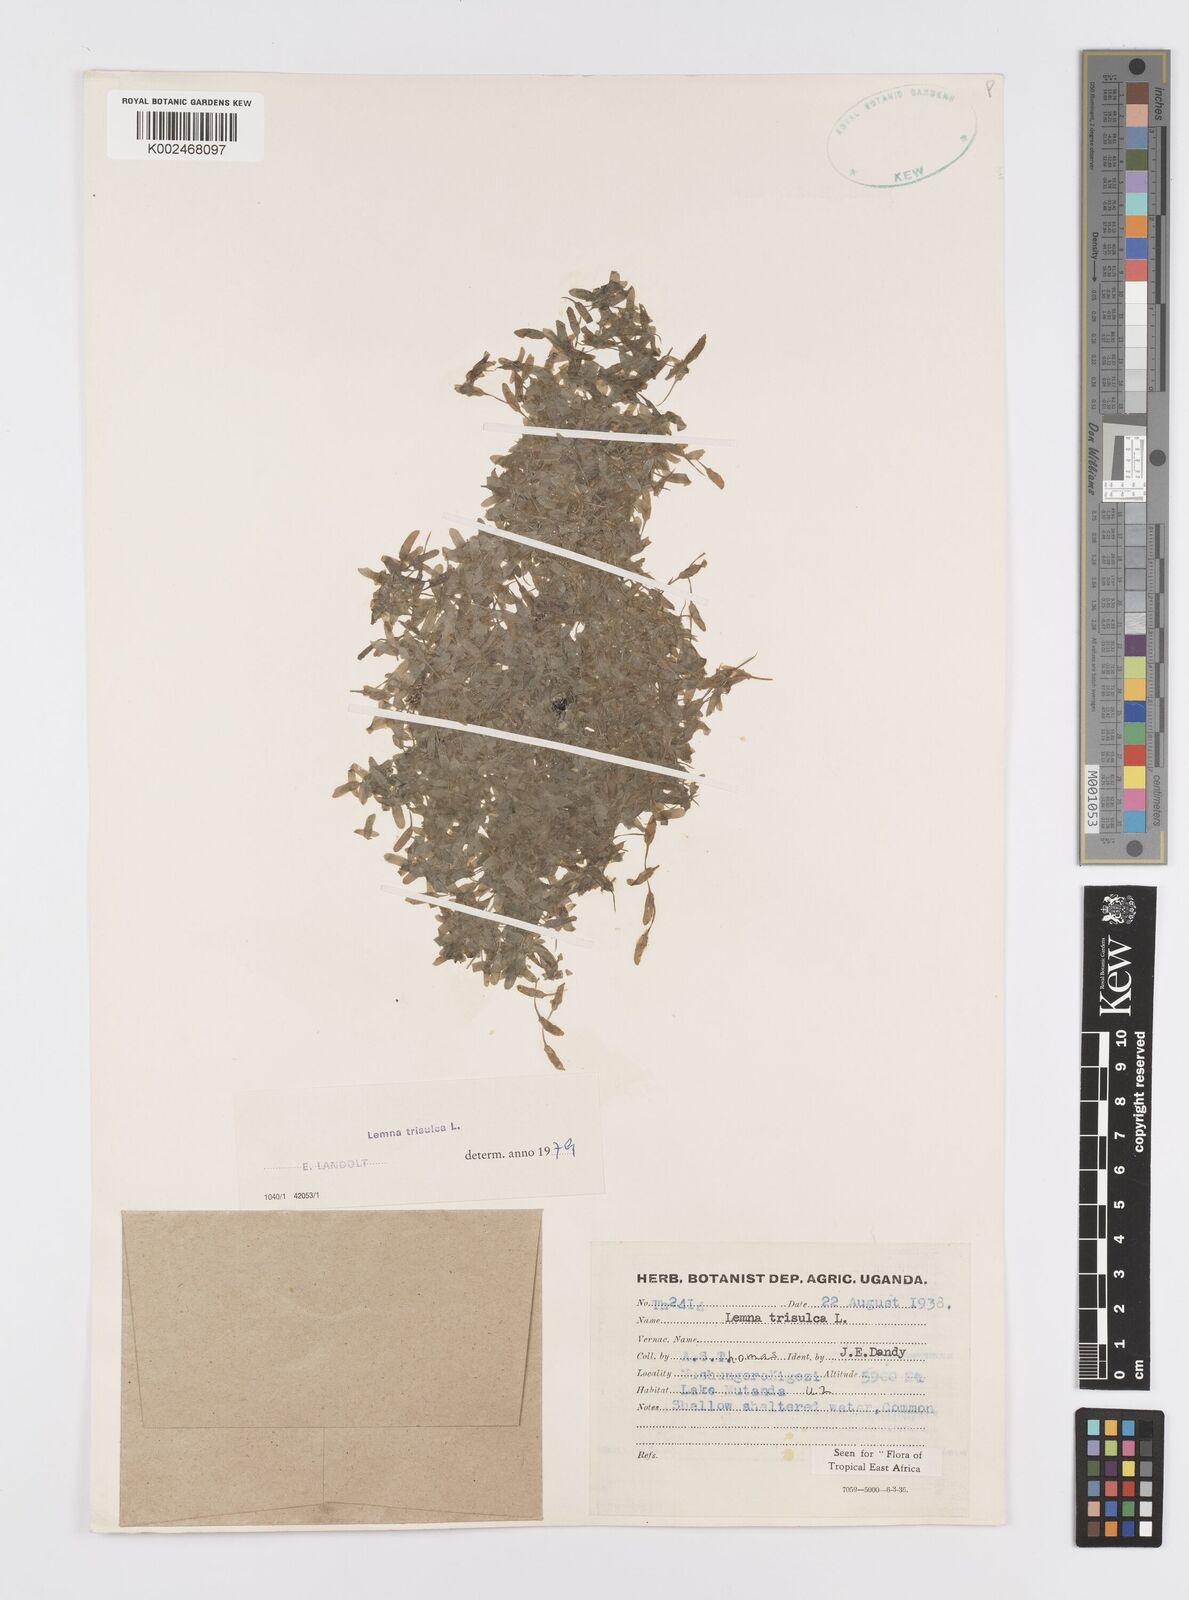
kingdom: Plantae
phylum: Tracheophyta
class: Liliopsida
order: Alismatales
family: Araceae
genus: Lemna
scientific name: Lemna trisulca
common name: Ivy-leaved duckweed
